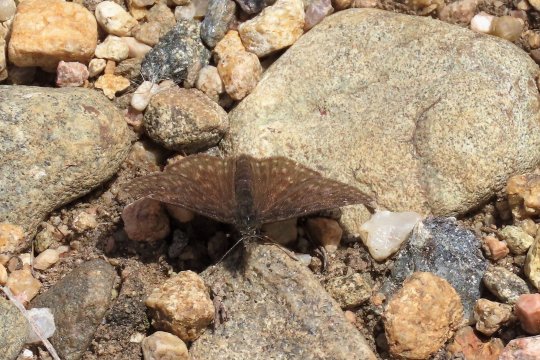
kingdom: Animalia
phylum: Arthropoda
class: Insecta
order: Lepidoptera
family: Hesperiidae
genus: Gesta
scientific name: Gesta
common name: Persius Duskywing
